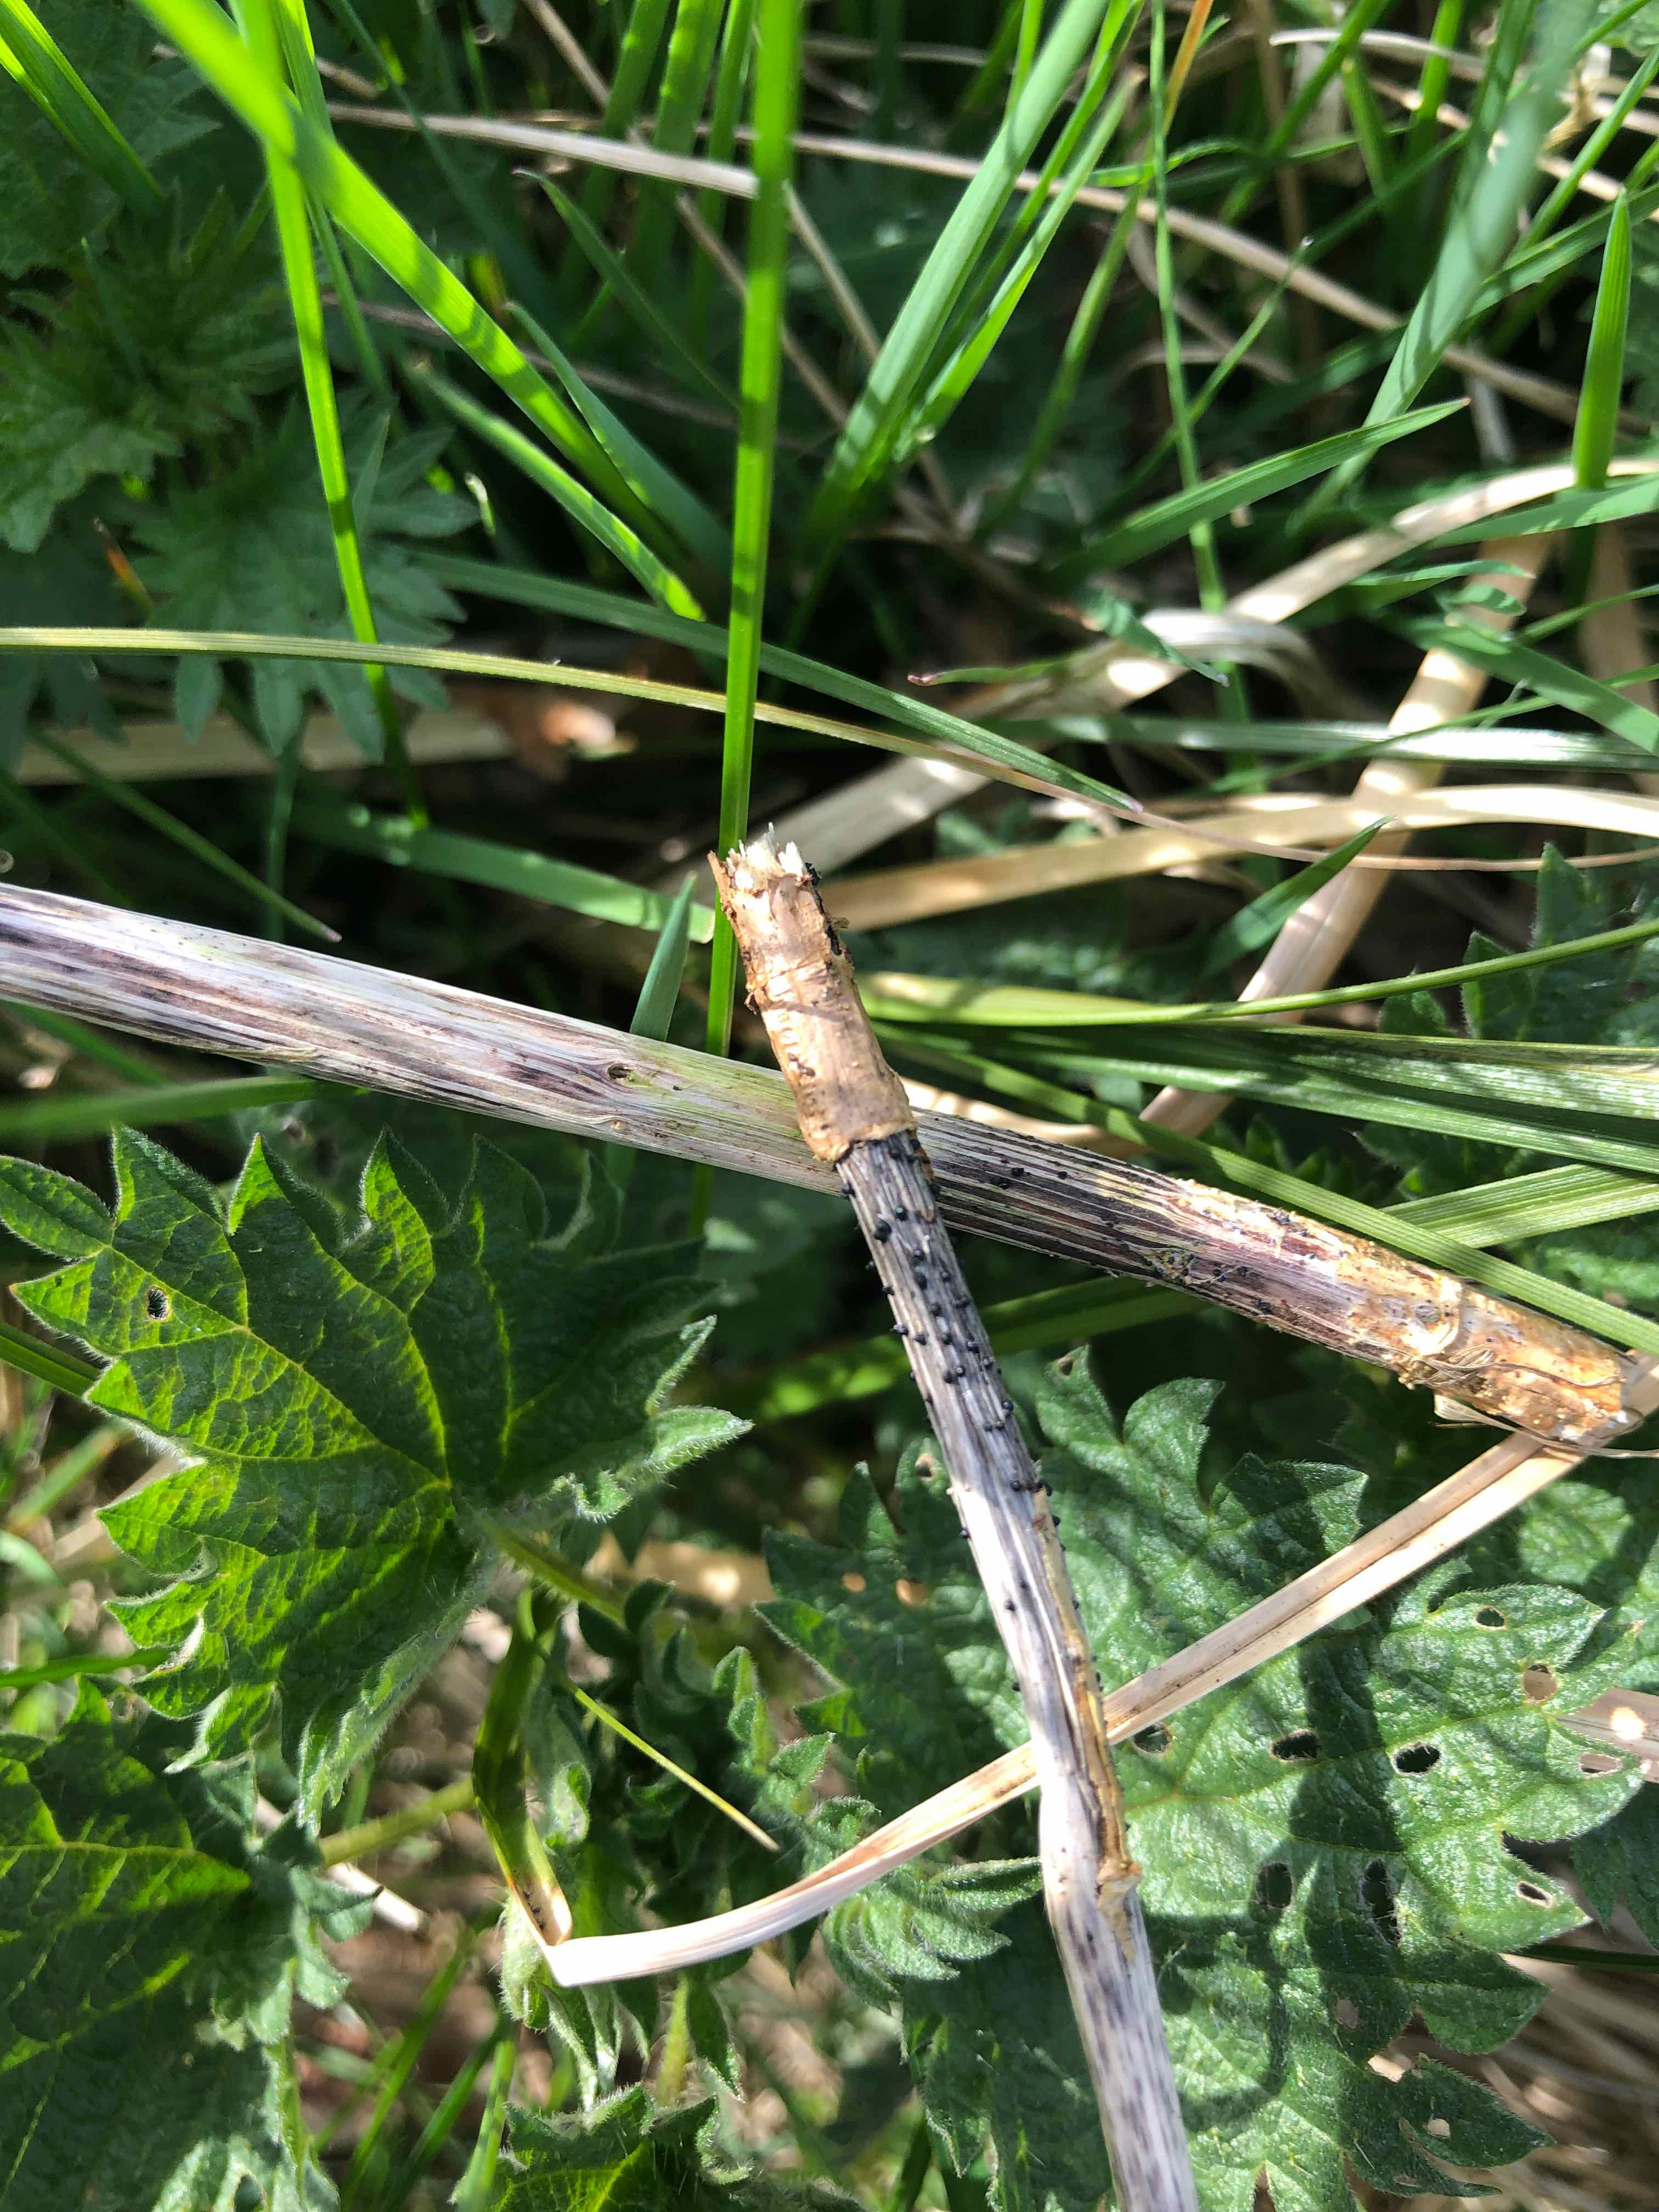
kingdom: Fungi
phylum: Ascomycota
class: Dothideomycetes
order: Pleosporales
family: Leptosphaeriaceae
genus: Leptosphaeria
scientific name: Leptosphaeria acuta
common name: spids kulkegle
